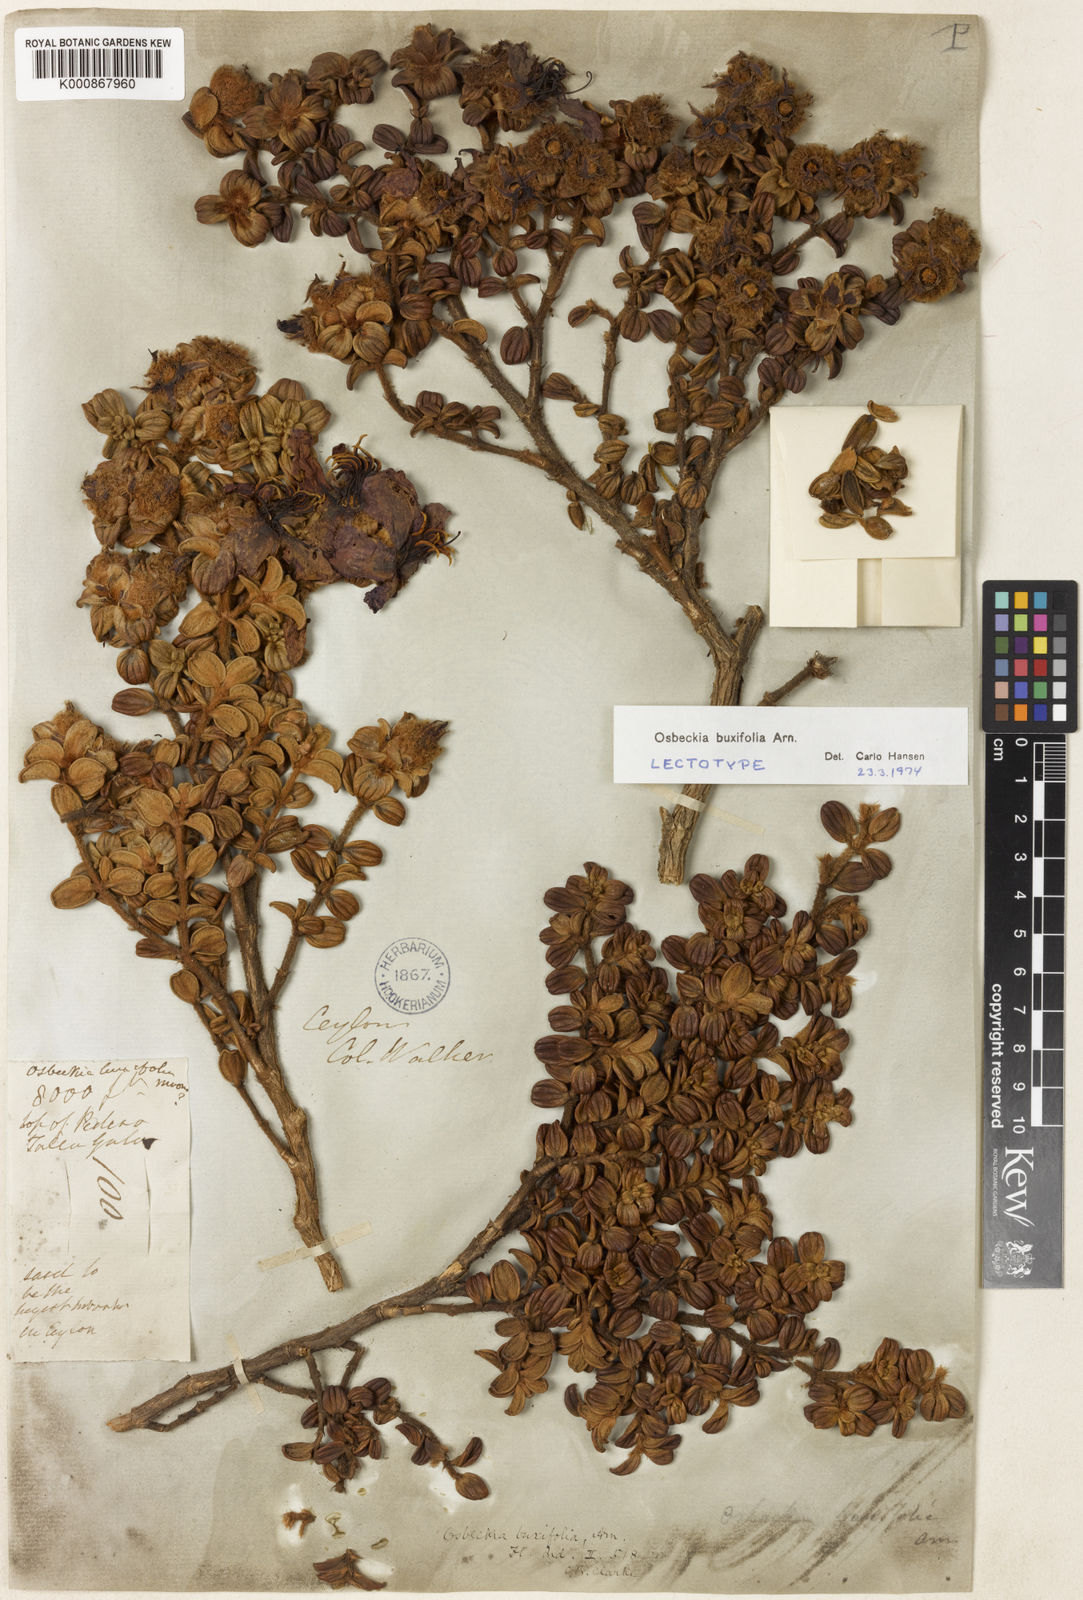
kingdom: Plantae
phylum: Tracheophyta
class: Magnoliopsida
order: Myrtales
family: Melastomataceae
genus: Osbeckia
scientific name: Osbeckia buxifolia
